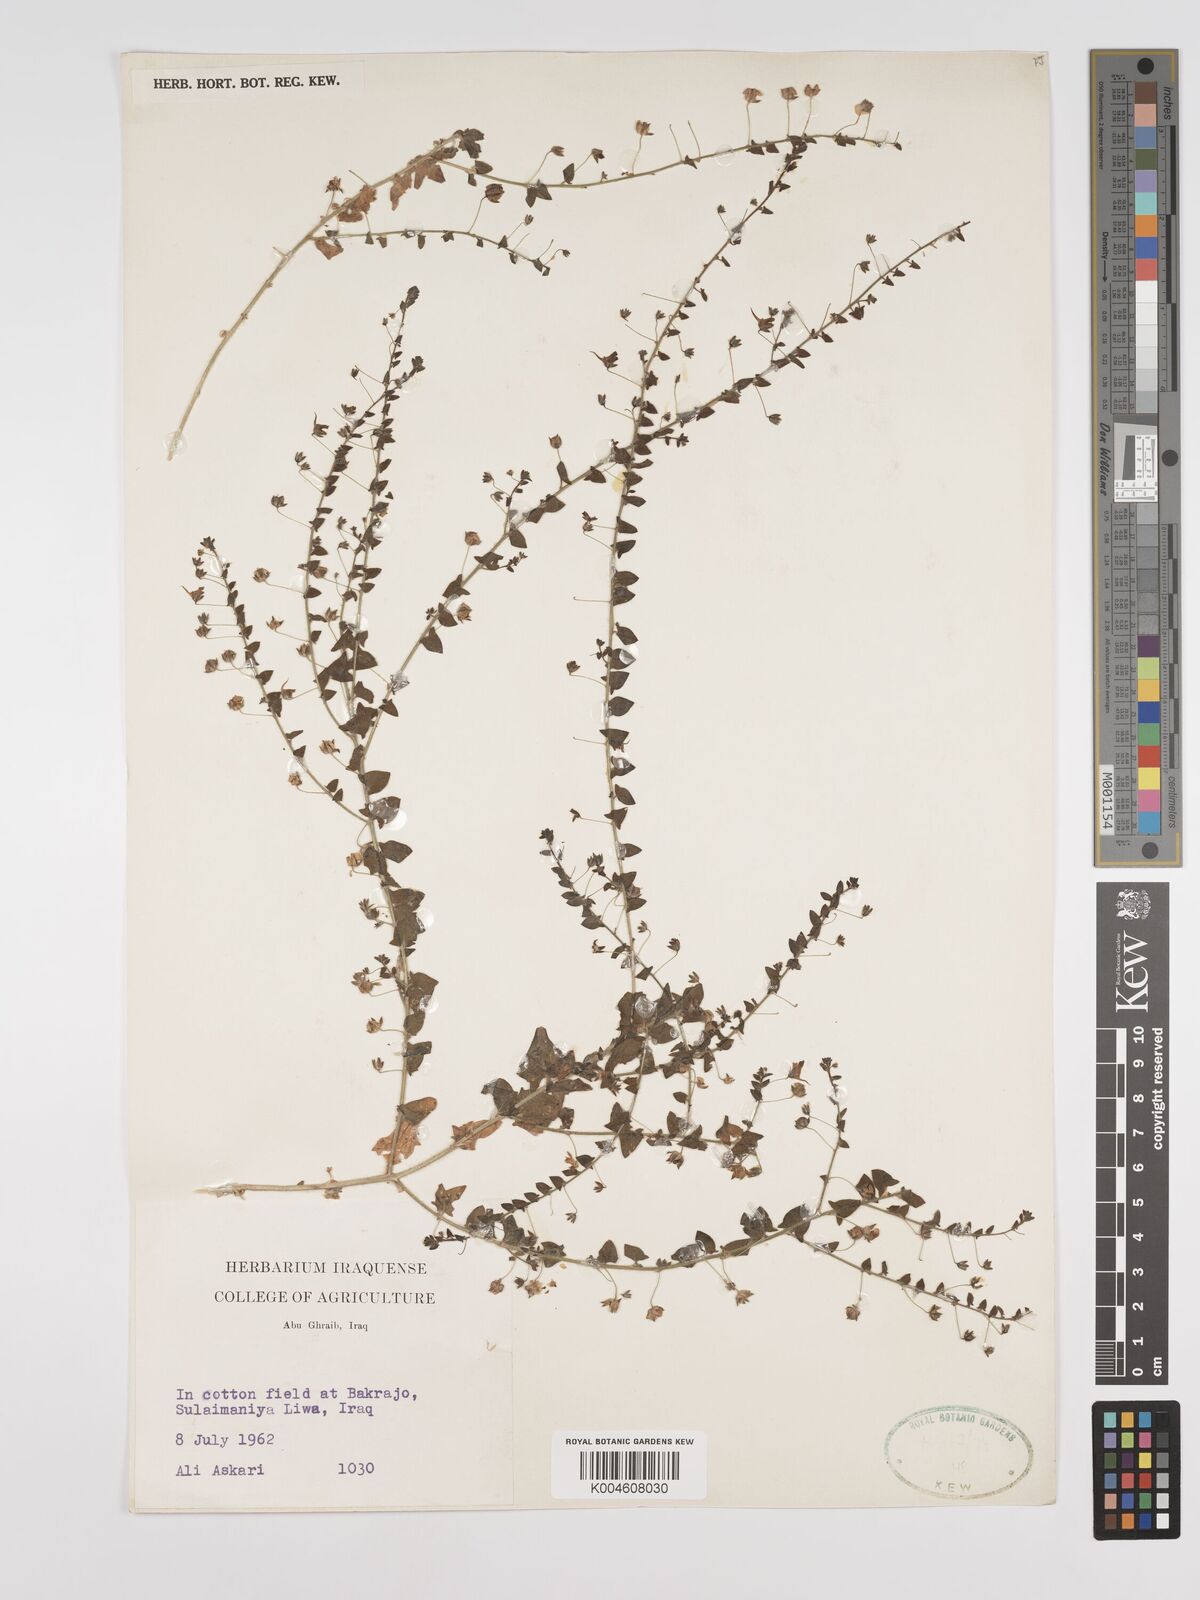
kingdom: Plantae
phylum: Tracheophyta
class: Magnoliopsida
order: Lamiales
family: Plantaginaceae
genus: Kickxia
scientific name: Kickxia elatine
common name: Sharp-leaved fluellen
